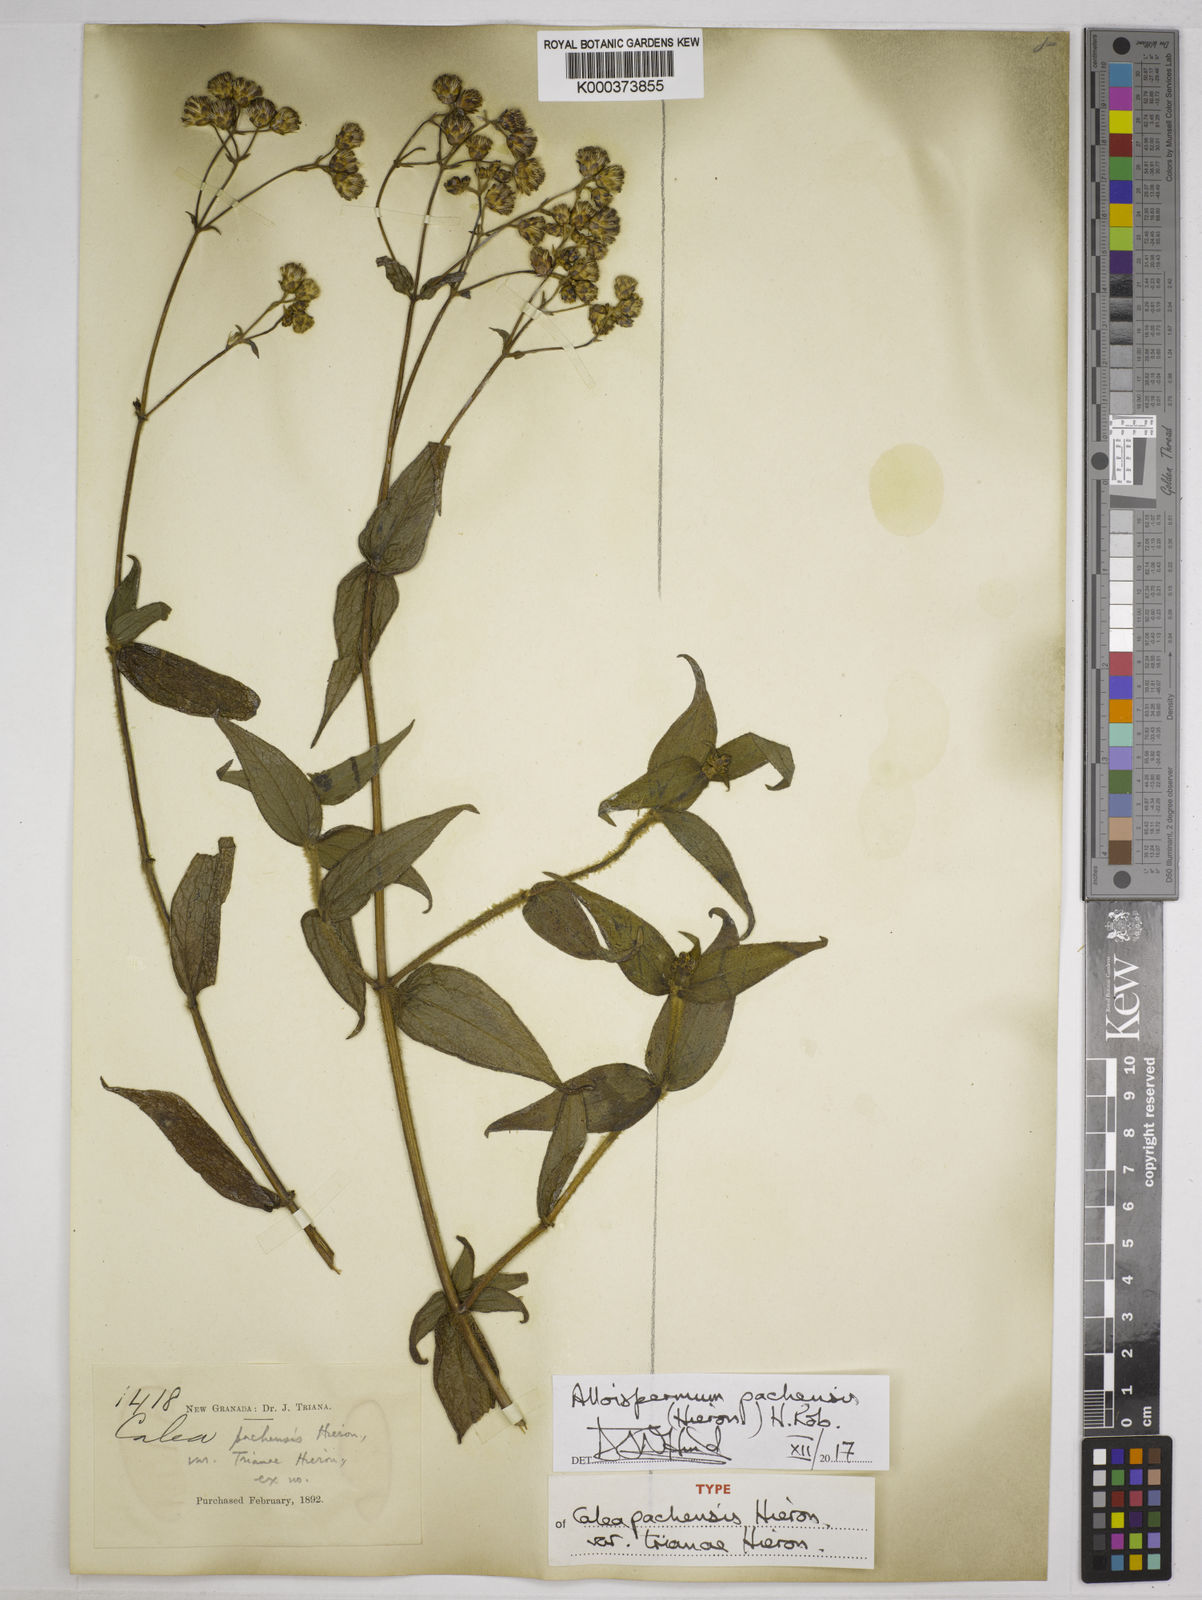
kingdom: Plantae
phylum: Tracheophyta
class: Magnoliopsida
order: Asterales
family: Asteraceae
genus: Alloispermum
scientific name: Alloispermum pachensis
